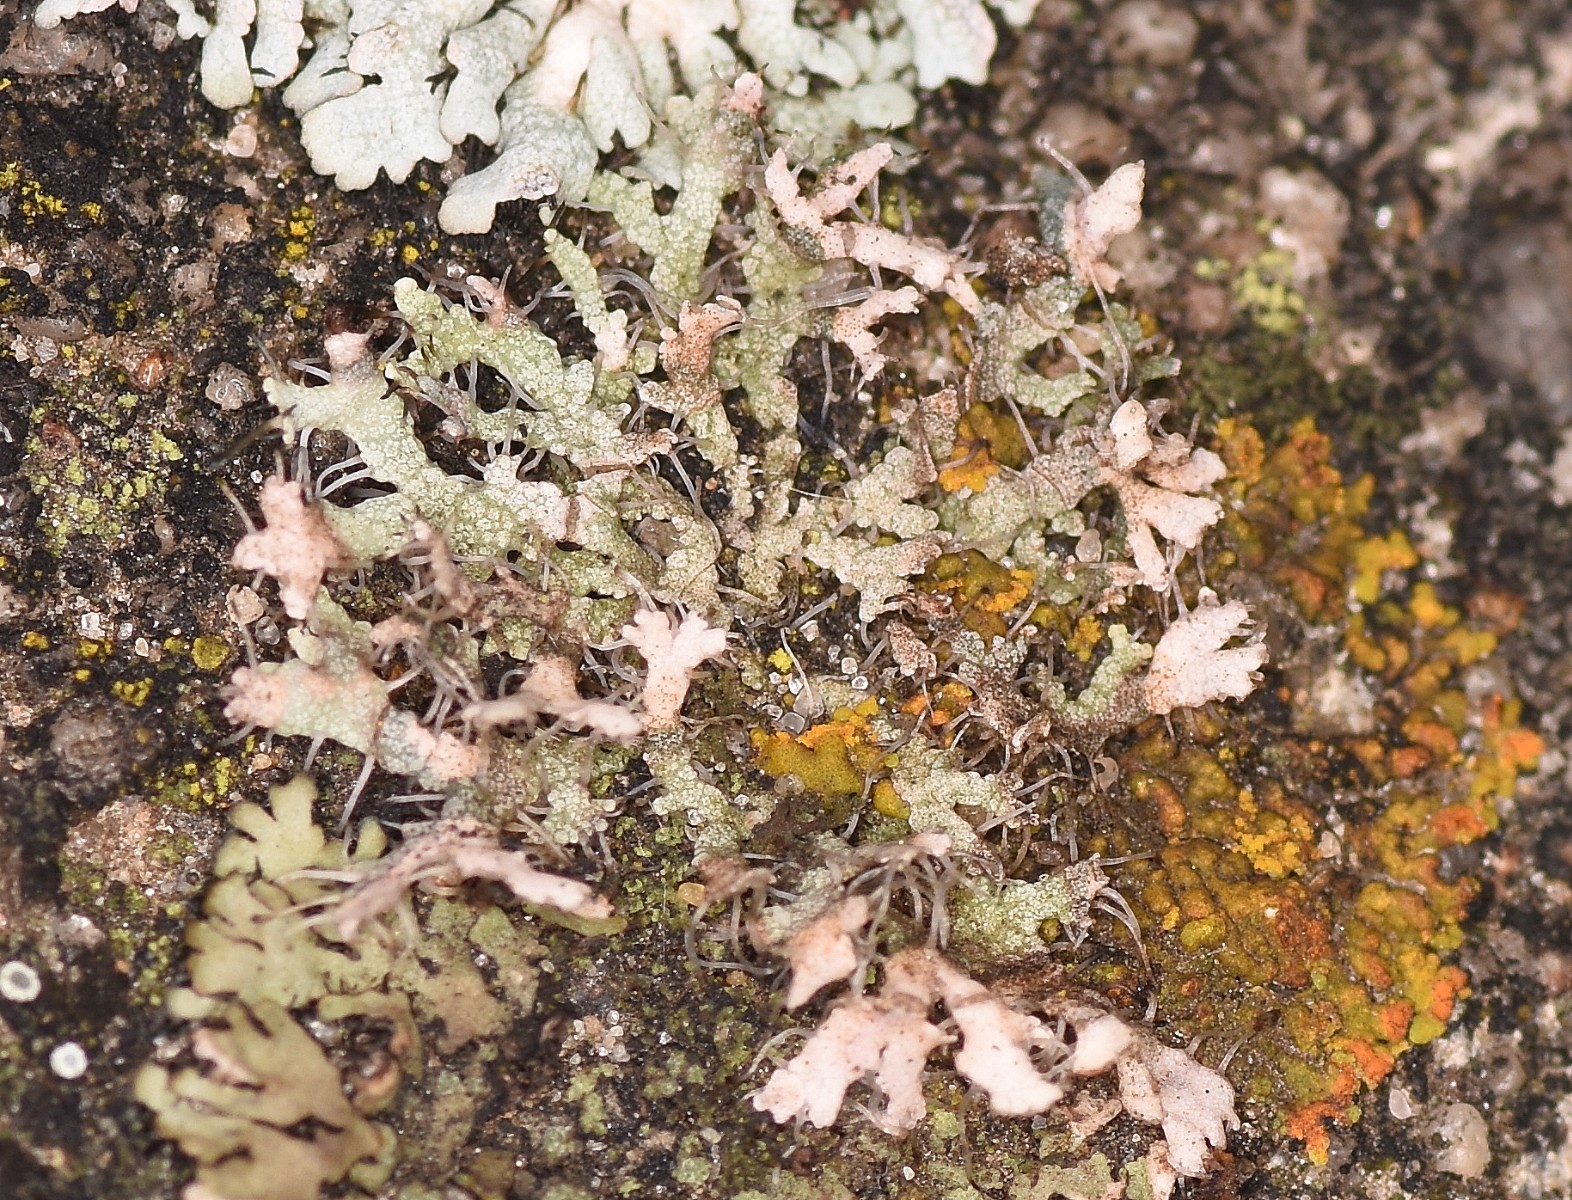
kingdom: Fungi
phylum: Ascomycota
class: Lecanoromycetes
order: Caliciales
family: Physciaceae
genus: Physcia
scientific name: Physcia tenella
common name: spæd rosetlav
